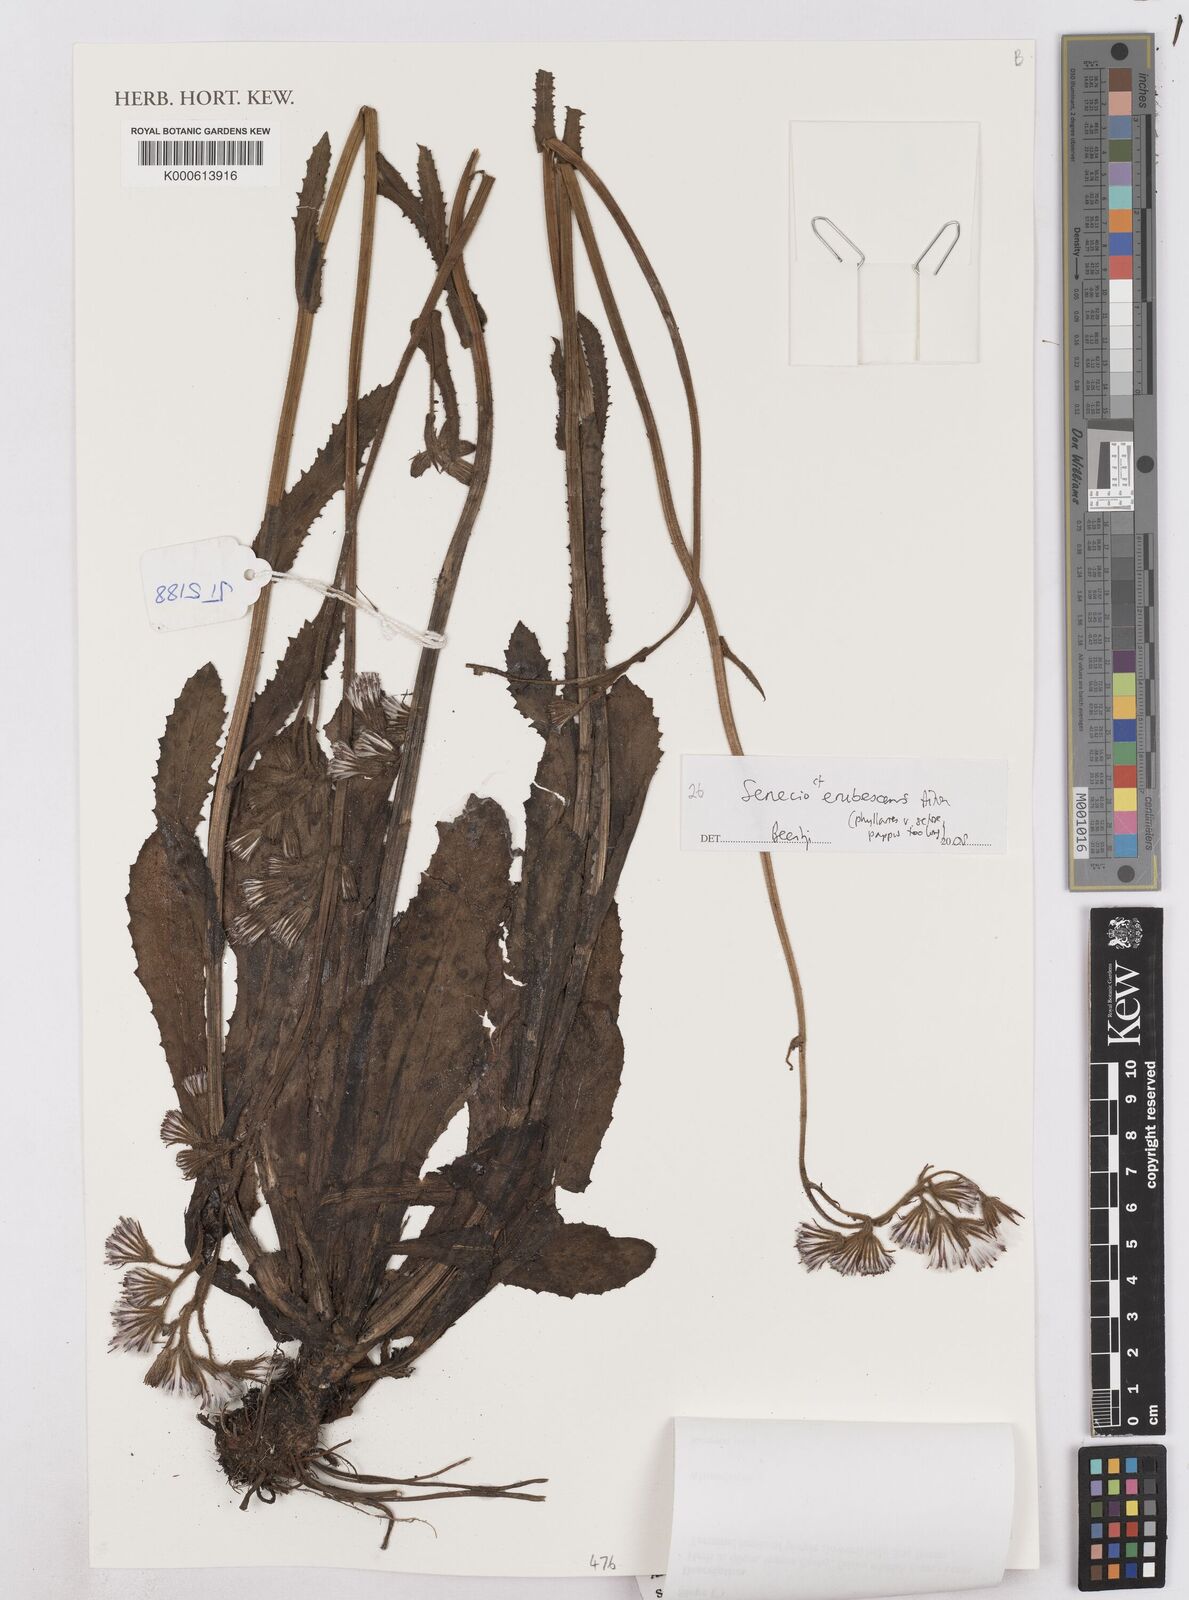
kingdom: Plantae
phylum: Tracheophyta
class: Magnoliopsida
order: Asterales
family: Asteraceae
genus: Senecio
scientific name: Senecio
